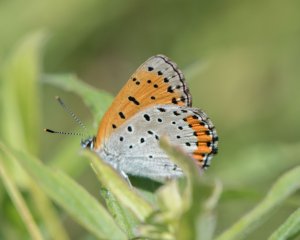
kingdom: Animalia
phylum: Arthropoda
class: Insecta
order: Lepidoptera
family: Sesiidae
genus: Sesia
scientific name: Sesia Lycaena hyllus
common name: Bronze Copper
